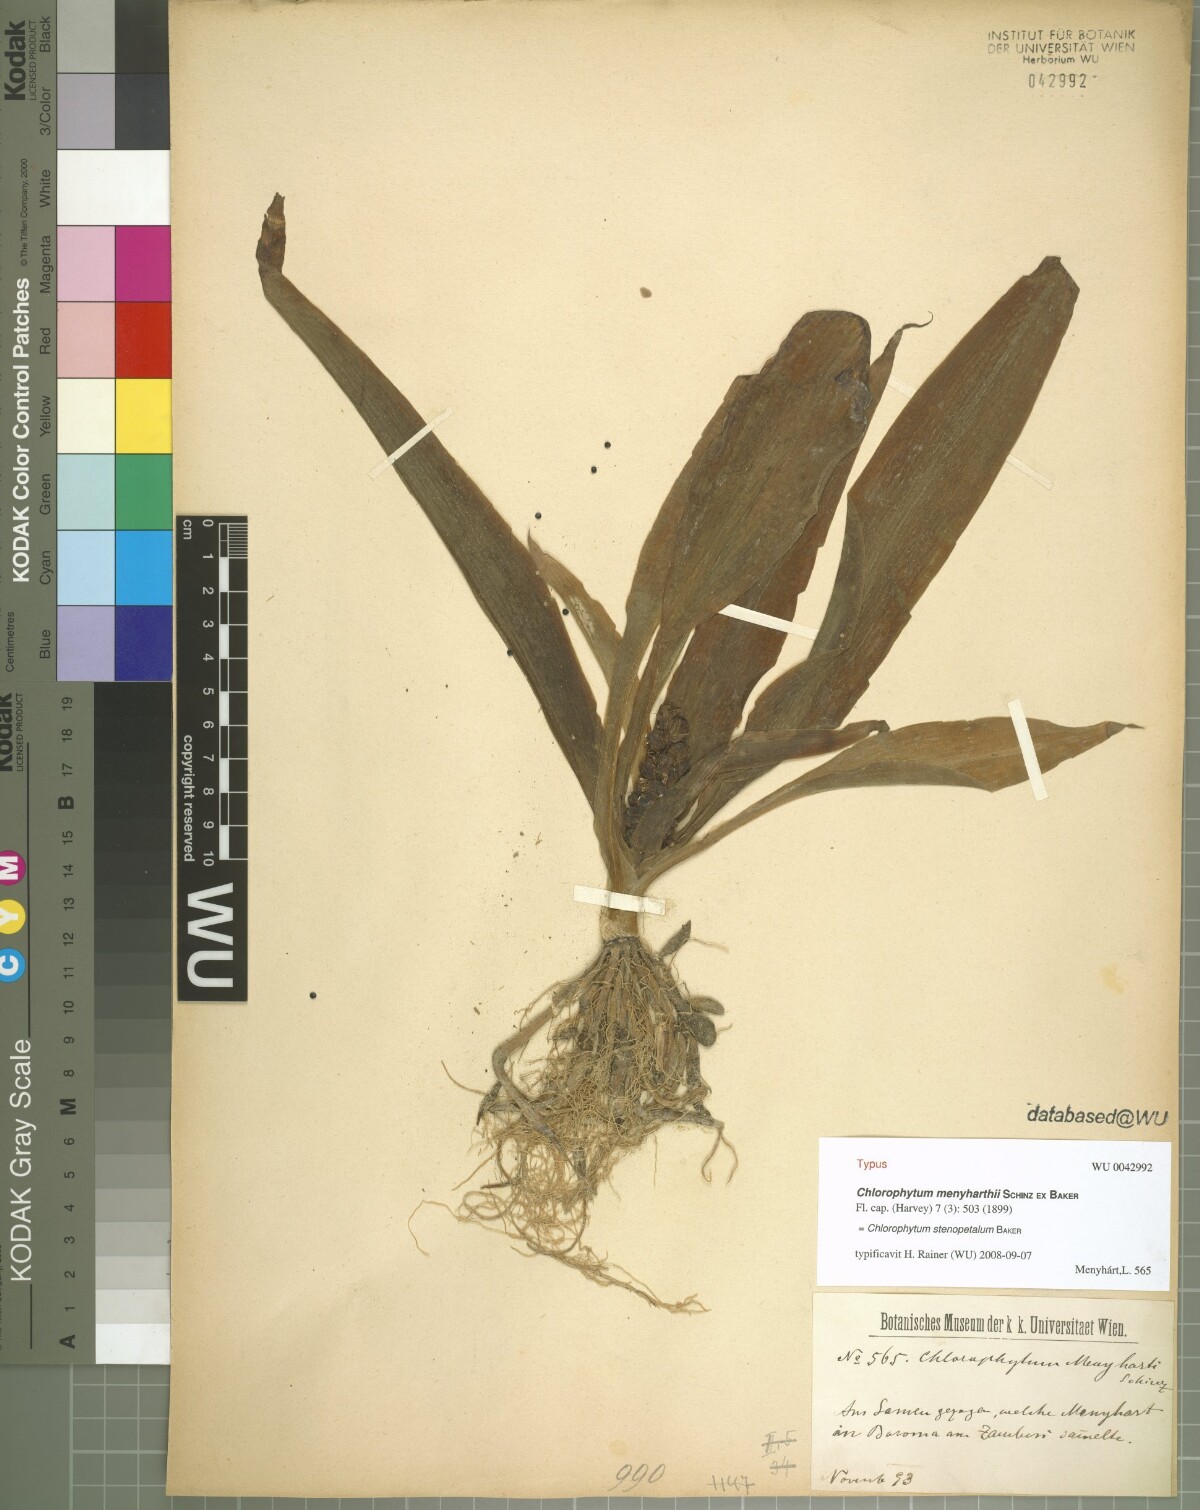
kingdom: Plantae
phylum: Tracheophyta
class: Liliopsida
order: Asparagales
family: Asparagaceae
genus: Chlorophytum
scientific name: Chlorophytum stenopetalum
